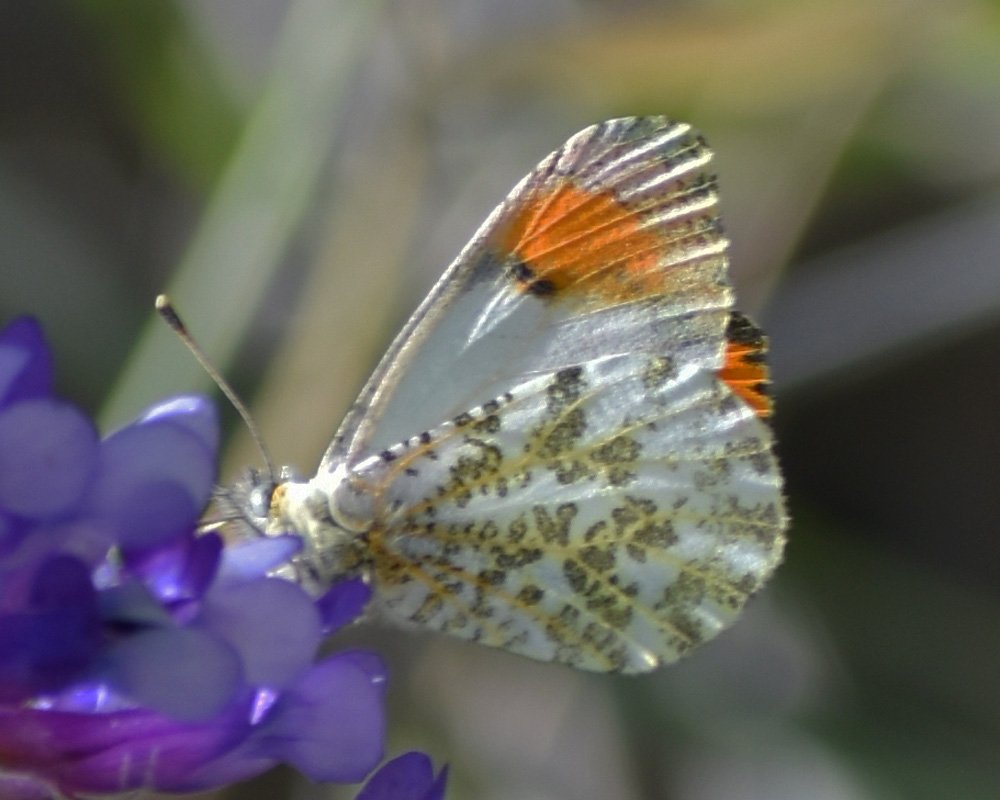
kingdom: Animalia
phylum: Arthropoda
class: Insecta
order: Lepidoptera
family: Pieridae
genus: Anthocharis
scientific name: Anthocharis sara
